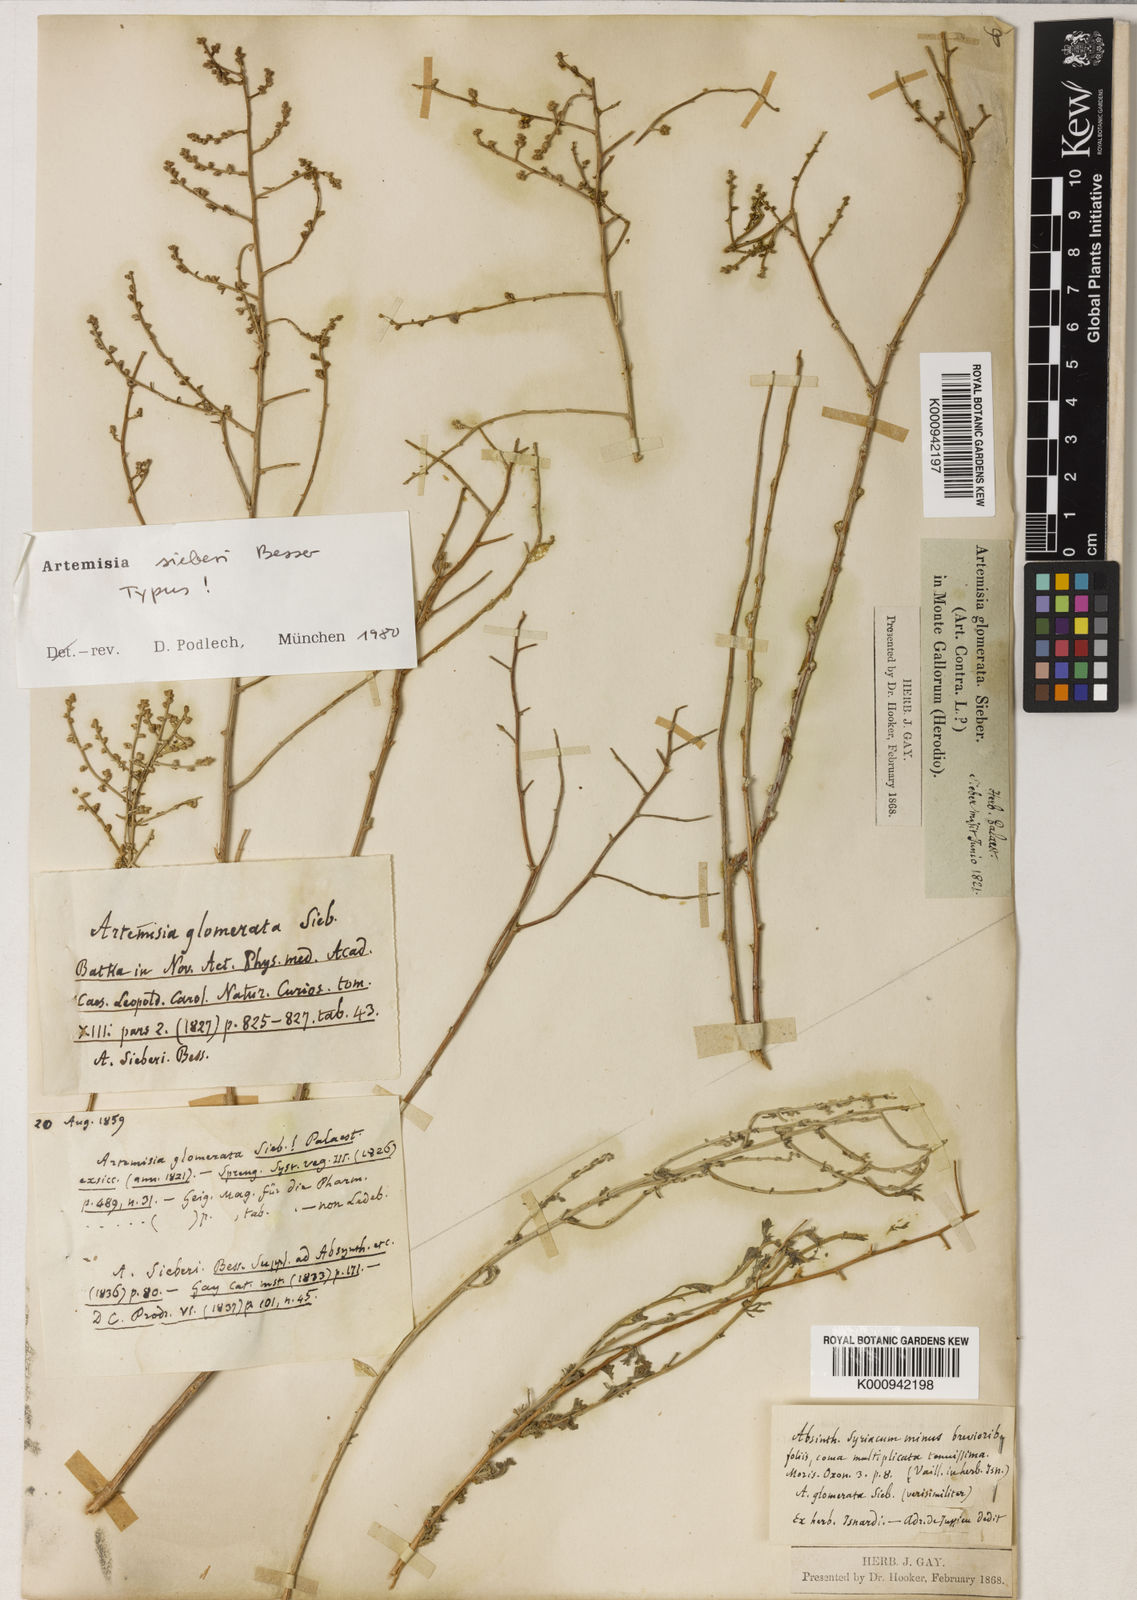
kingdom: Plantae
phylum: Tracheophyta
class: Magnoliopsida
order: Asterales
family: Asteraceae
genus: Artemisia
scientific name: Artemisia sieberi
